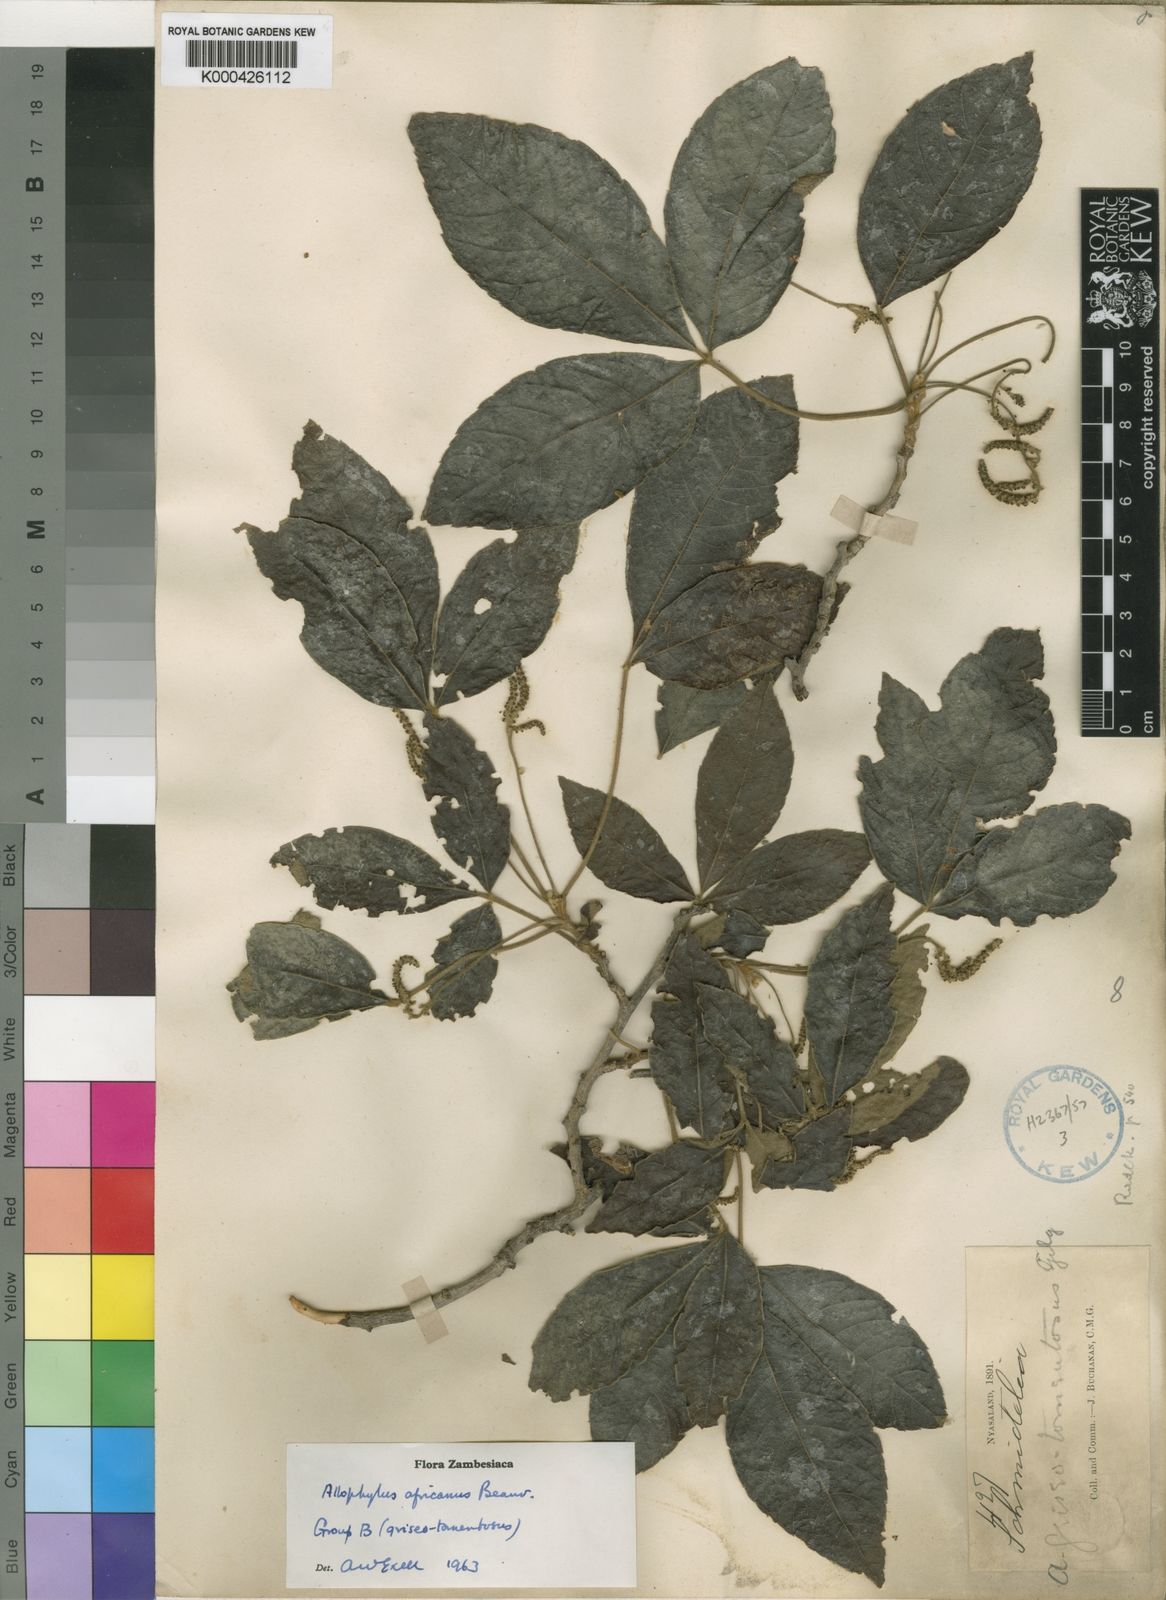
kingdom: Plantae
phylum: Tracheophyta
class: Magnoliopsida
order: Sapindales
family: Sapindaceae
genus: Allophylus
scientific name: Allophylus africanus
